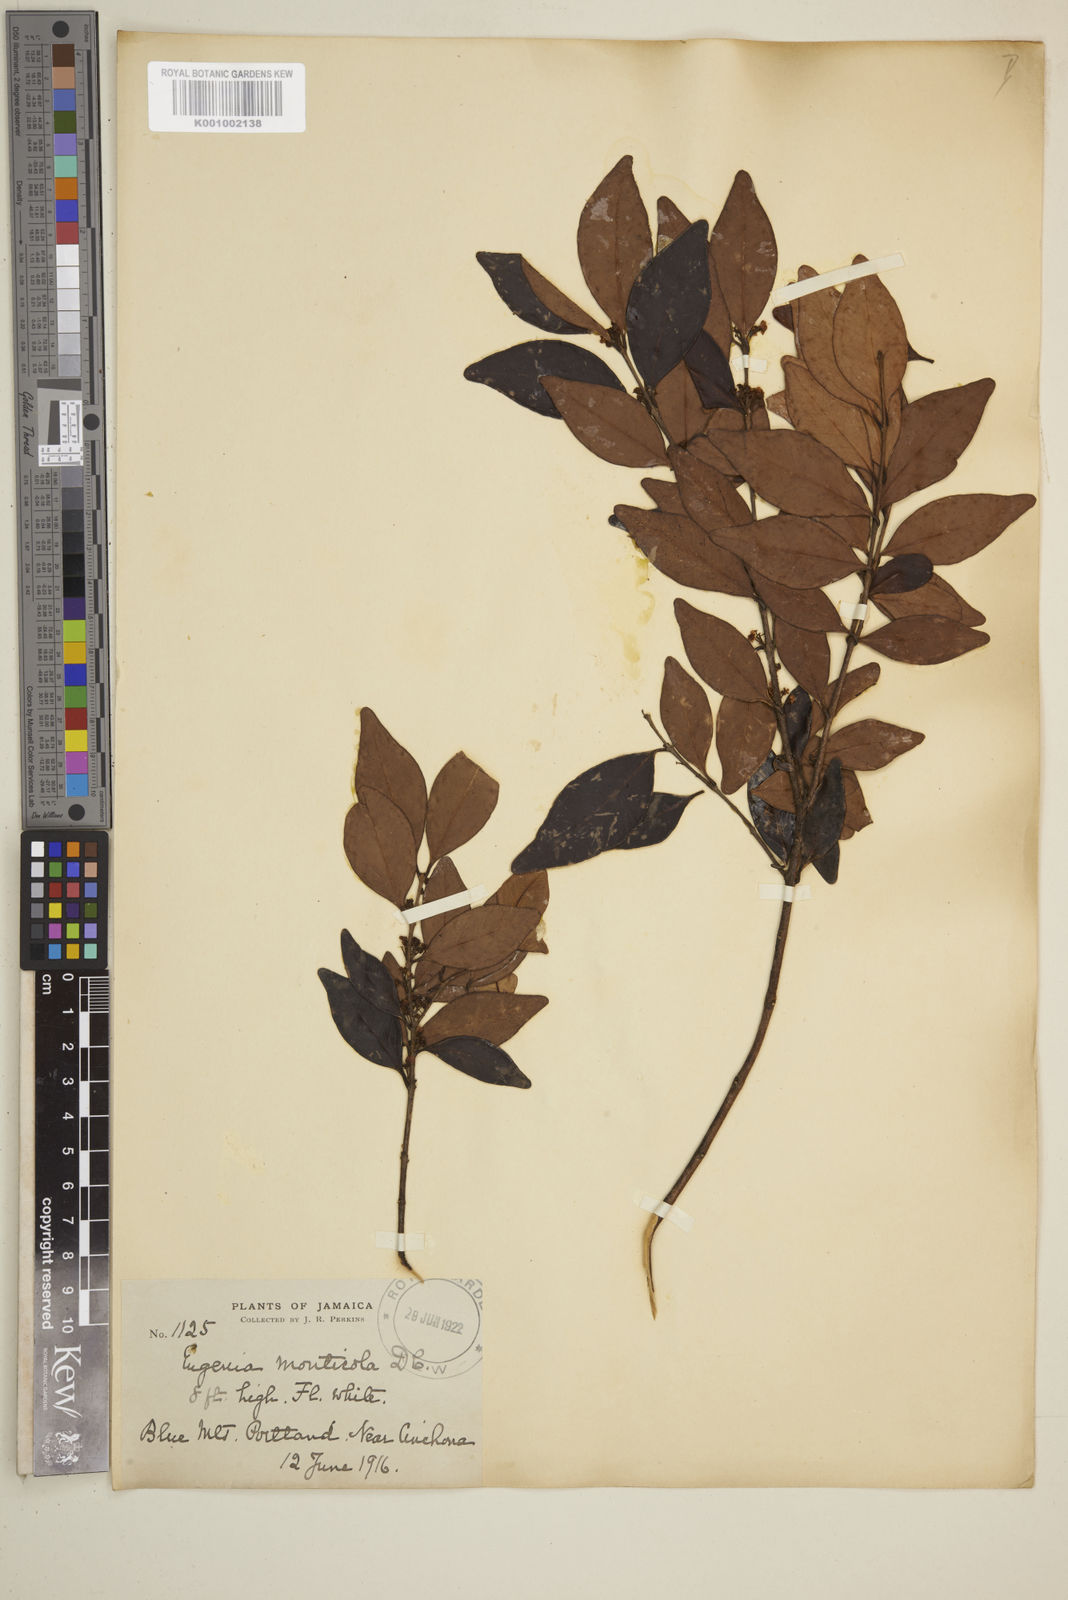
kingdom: Plantae
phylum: Tracheophyta
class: Magnoliopsida
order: Myrtales
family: Myrtaceae
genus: Eugenia
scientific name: Eugenia monticola
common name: Birds berry
